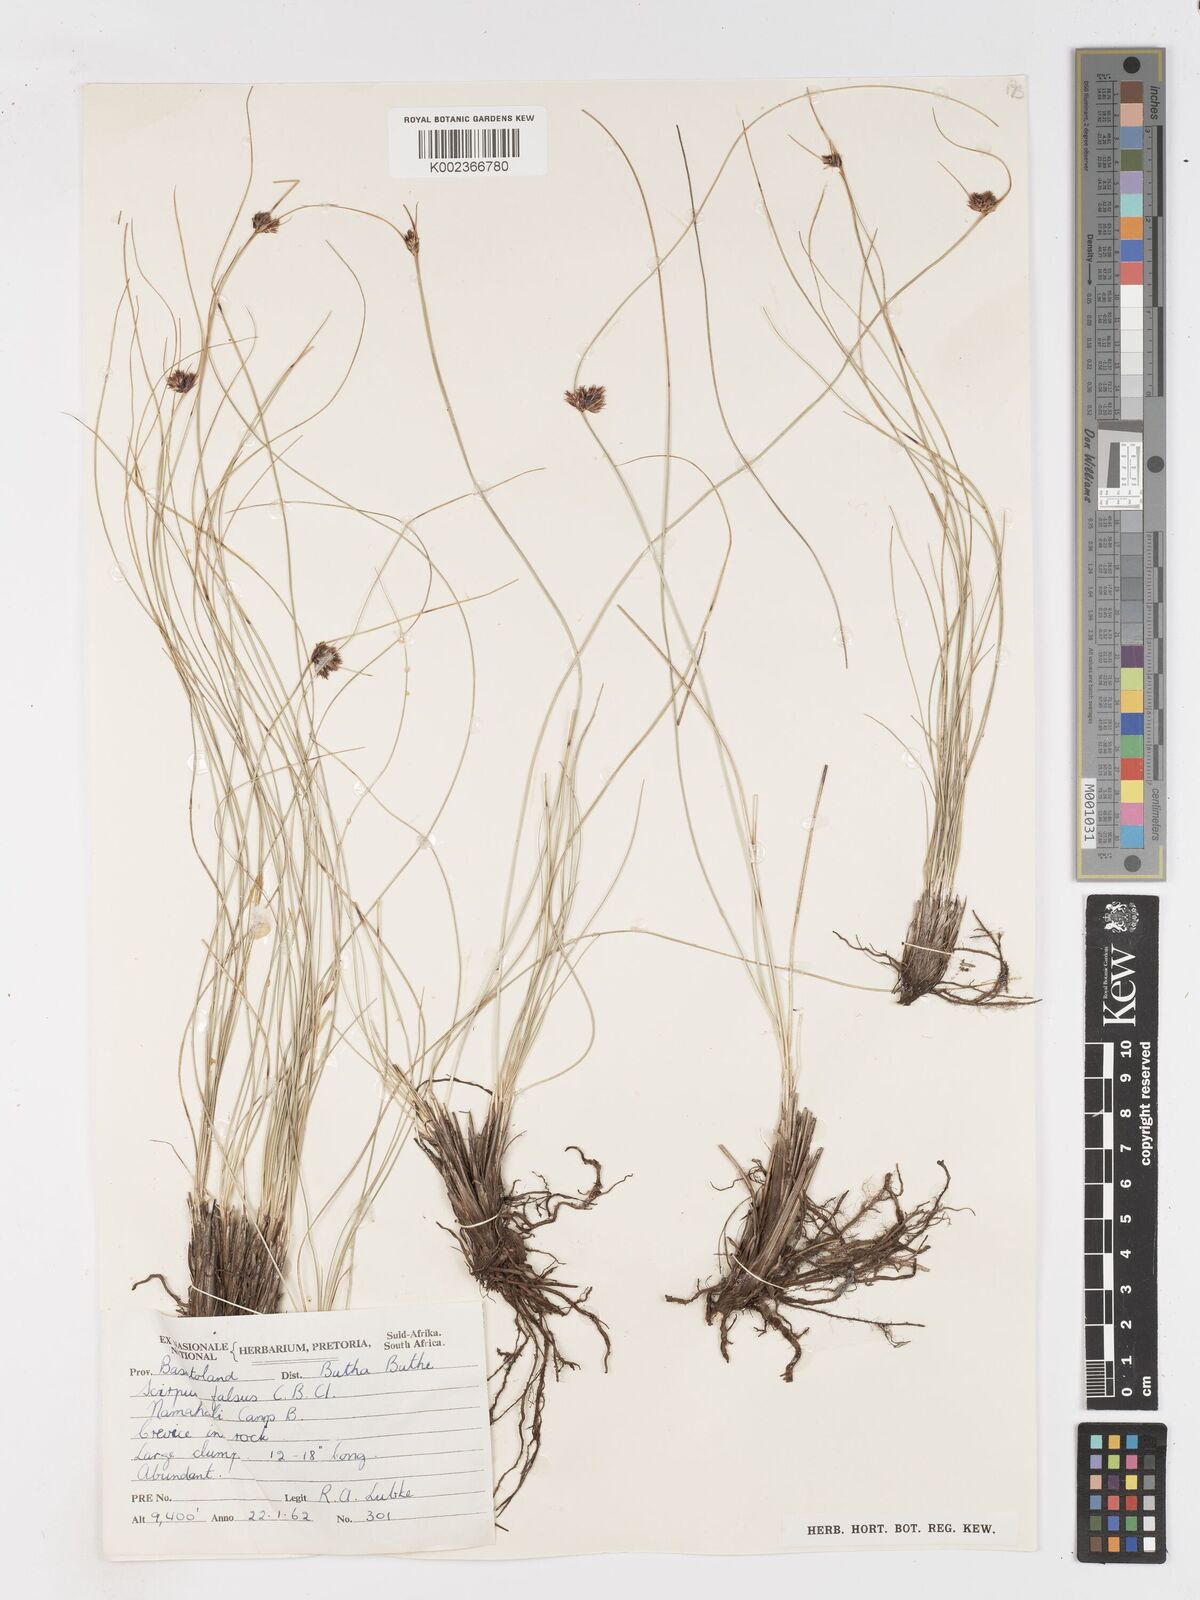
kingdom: Plantae
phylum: Tracheophyta
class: Liliopsida
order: Poales
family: Cyperaceae
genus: Dracoscirpoides
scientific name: Dracoscirpoides falsa
